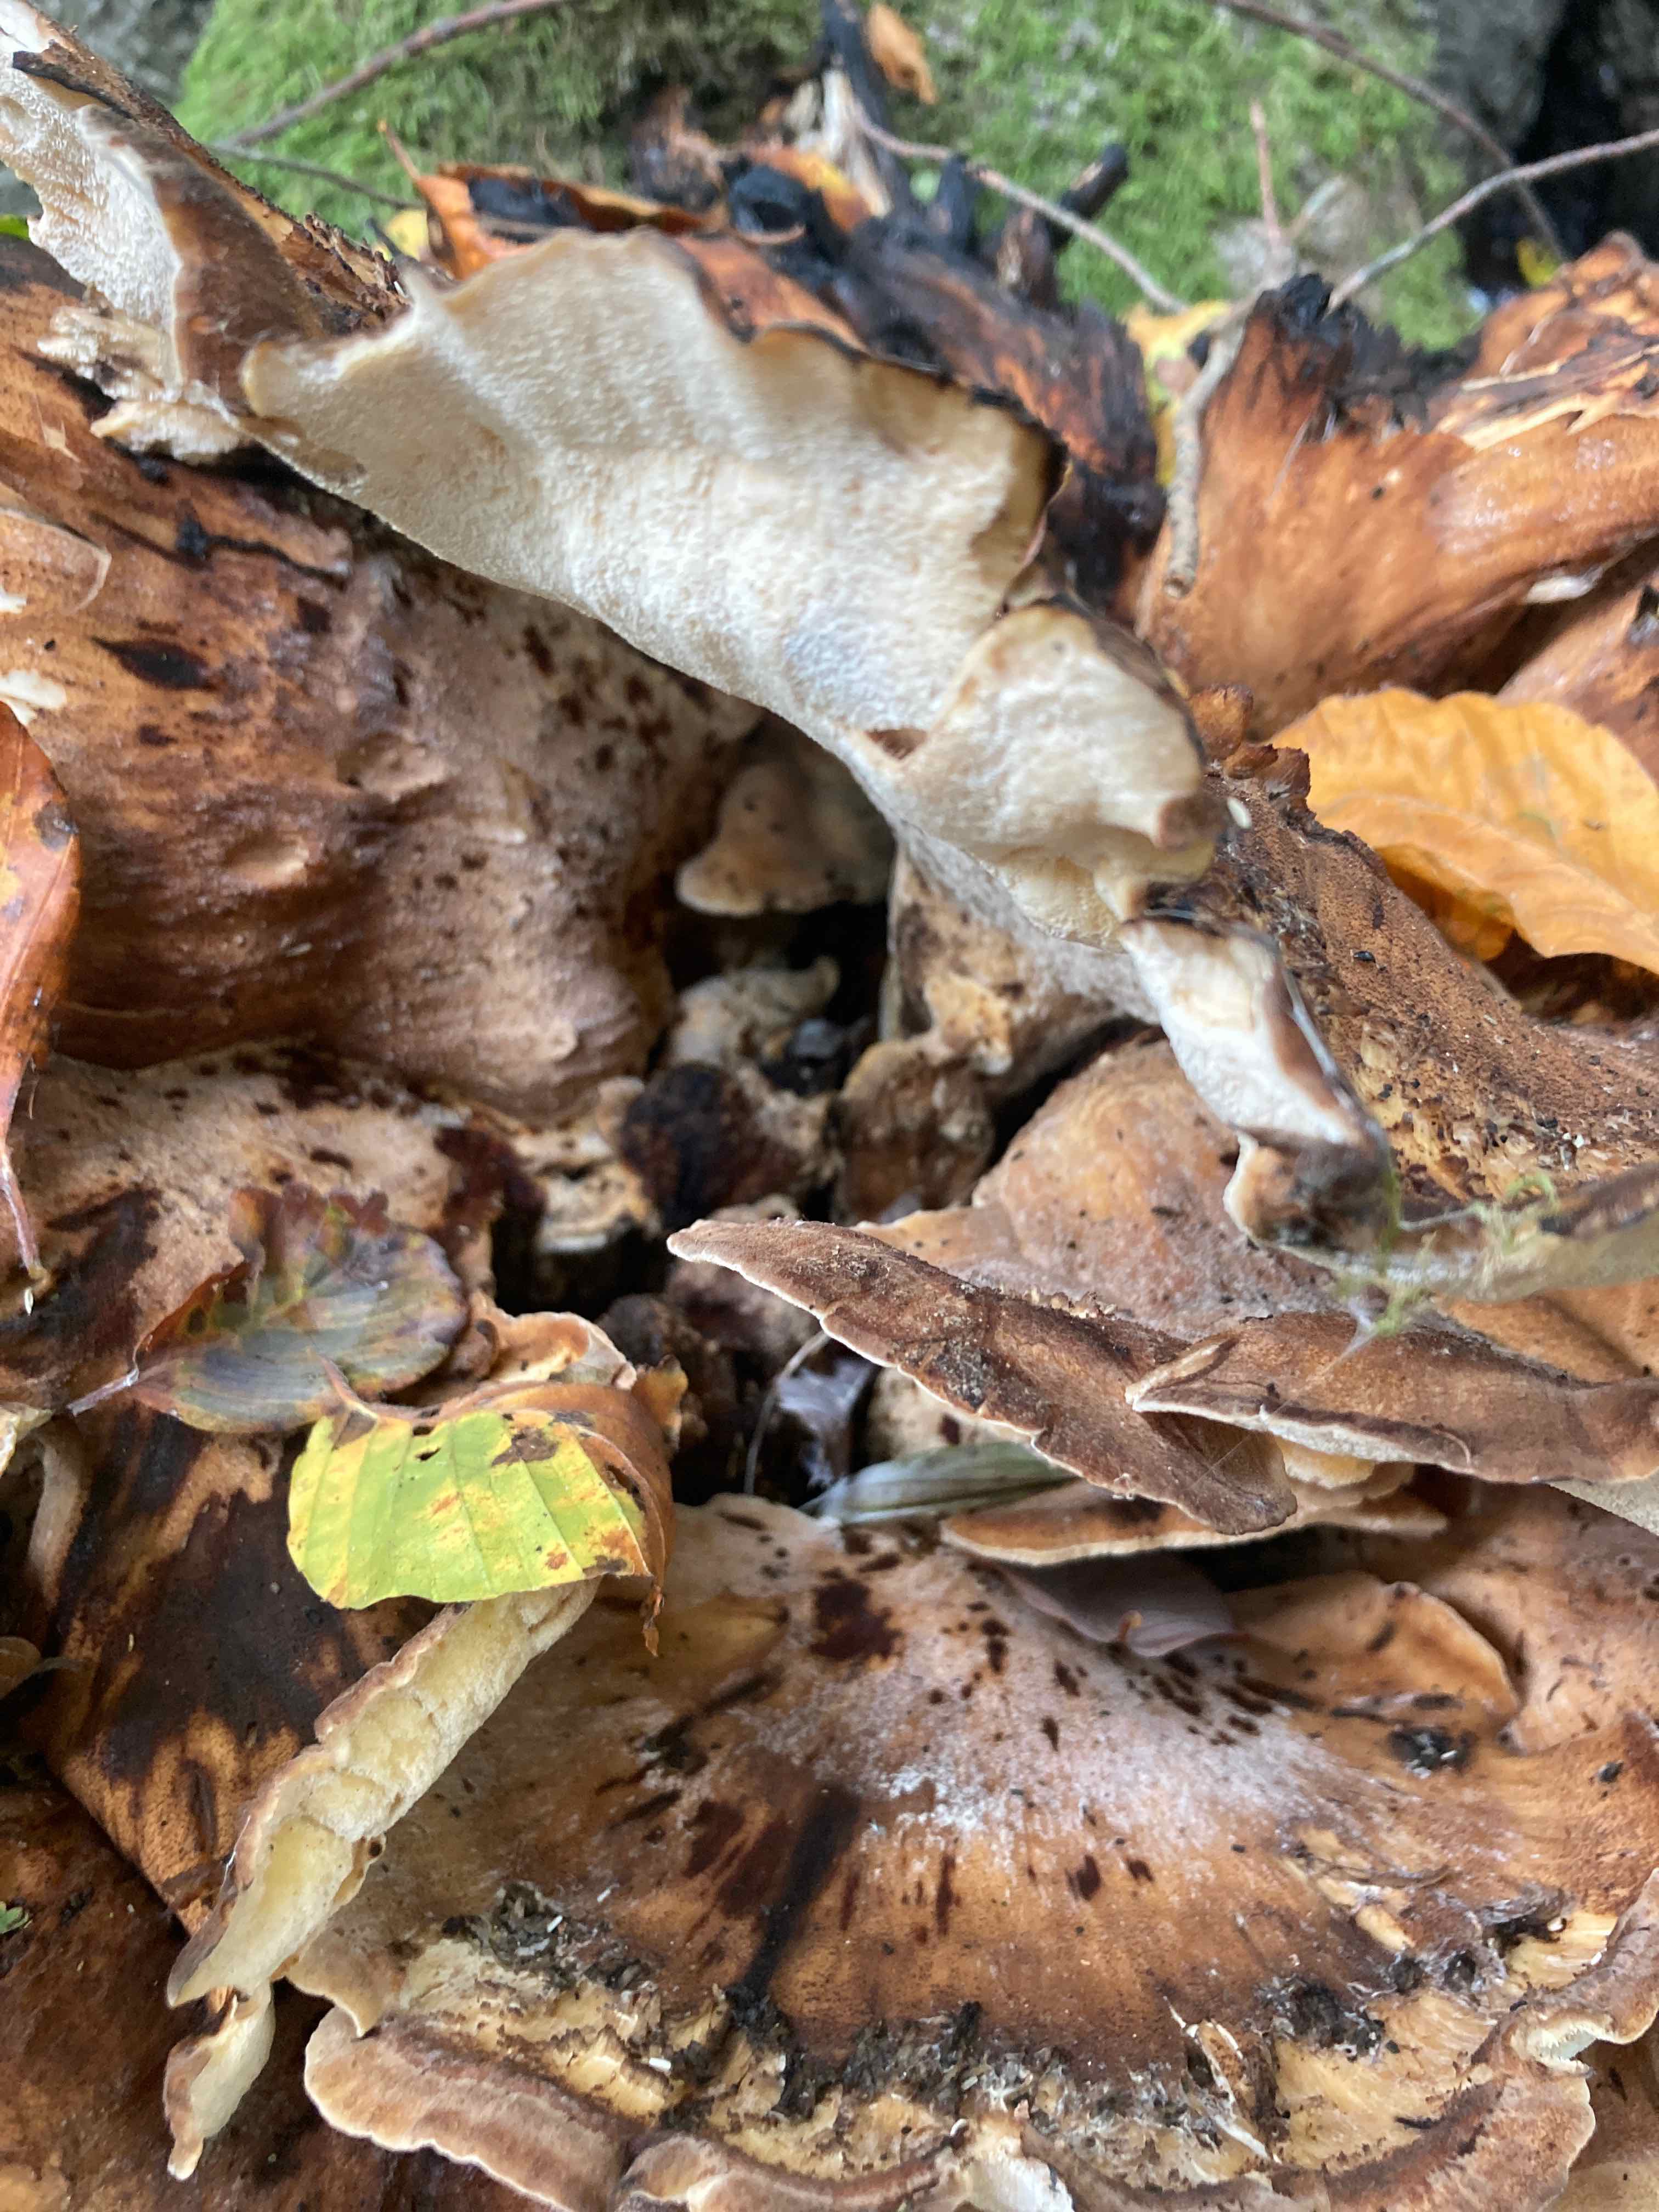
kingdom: Fungi
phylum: Basidiomycota
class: Agaricomycetes
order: Polyporales
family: Meripilaceae
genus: Meripilus
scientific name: Meripilus giganteus
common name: kæmpeporesvamp
